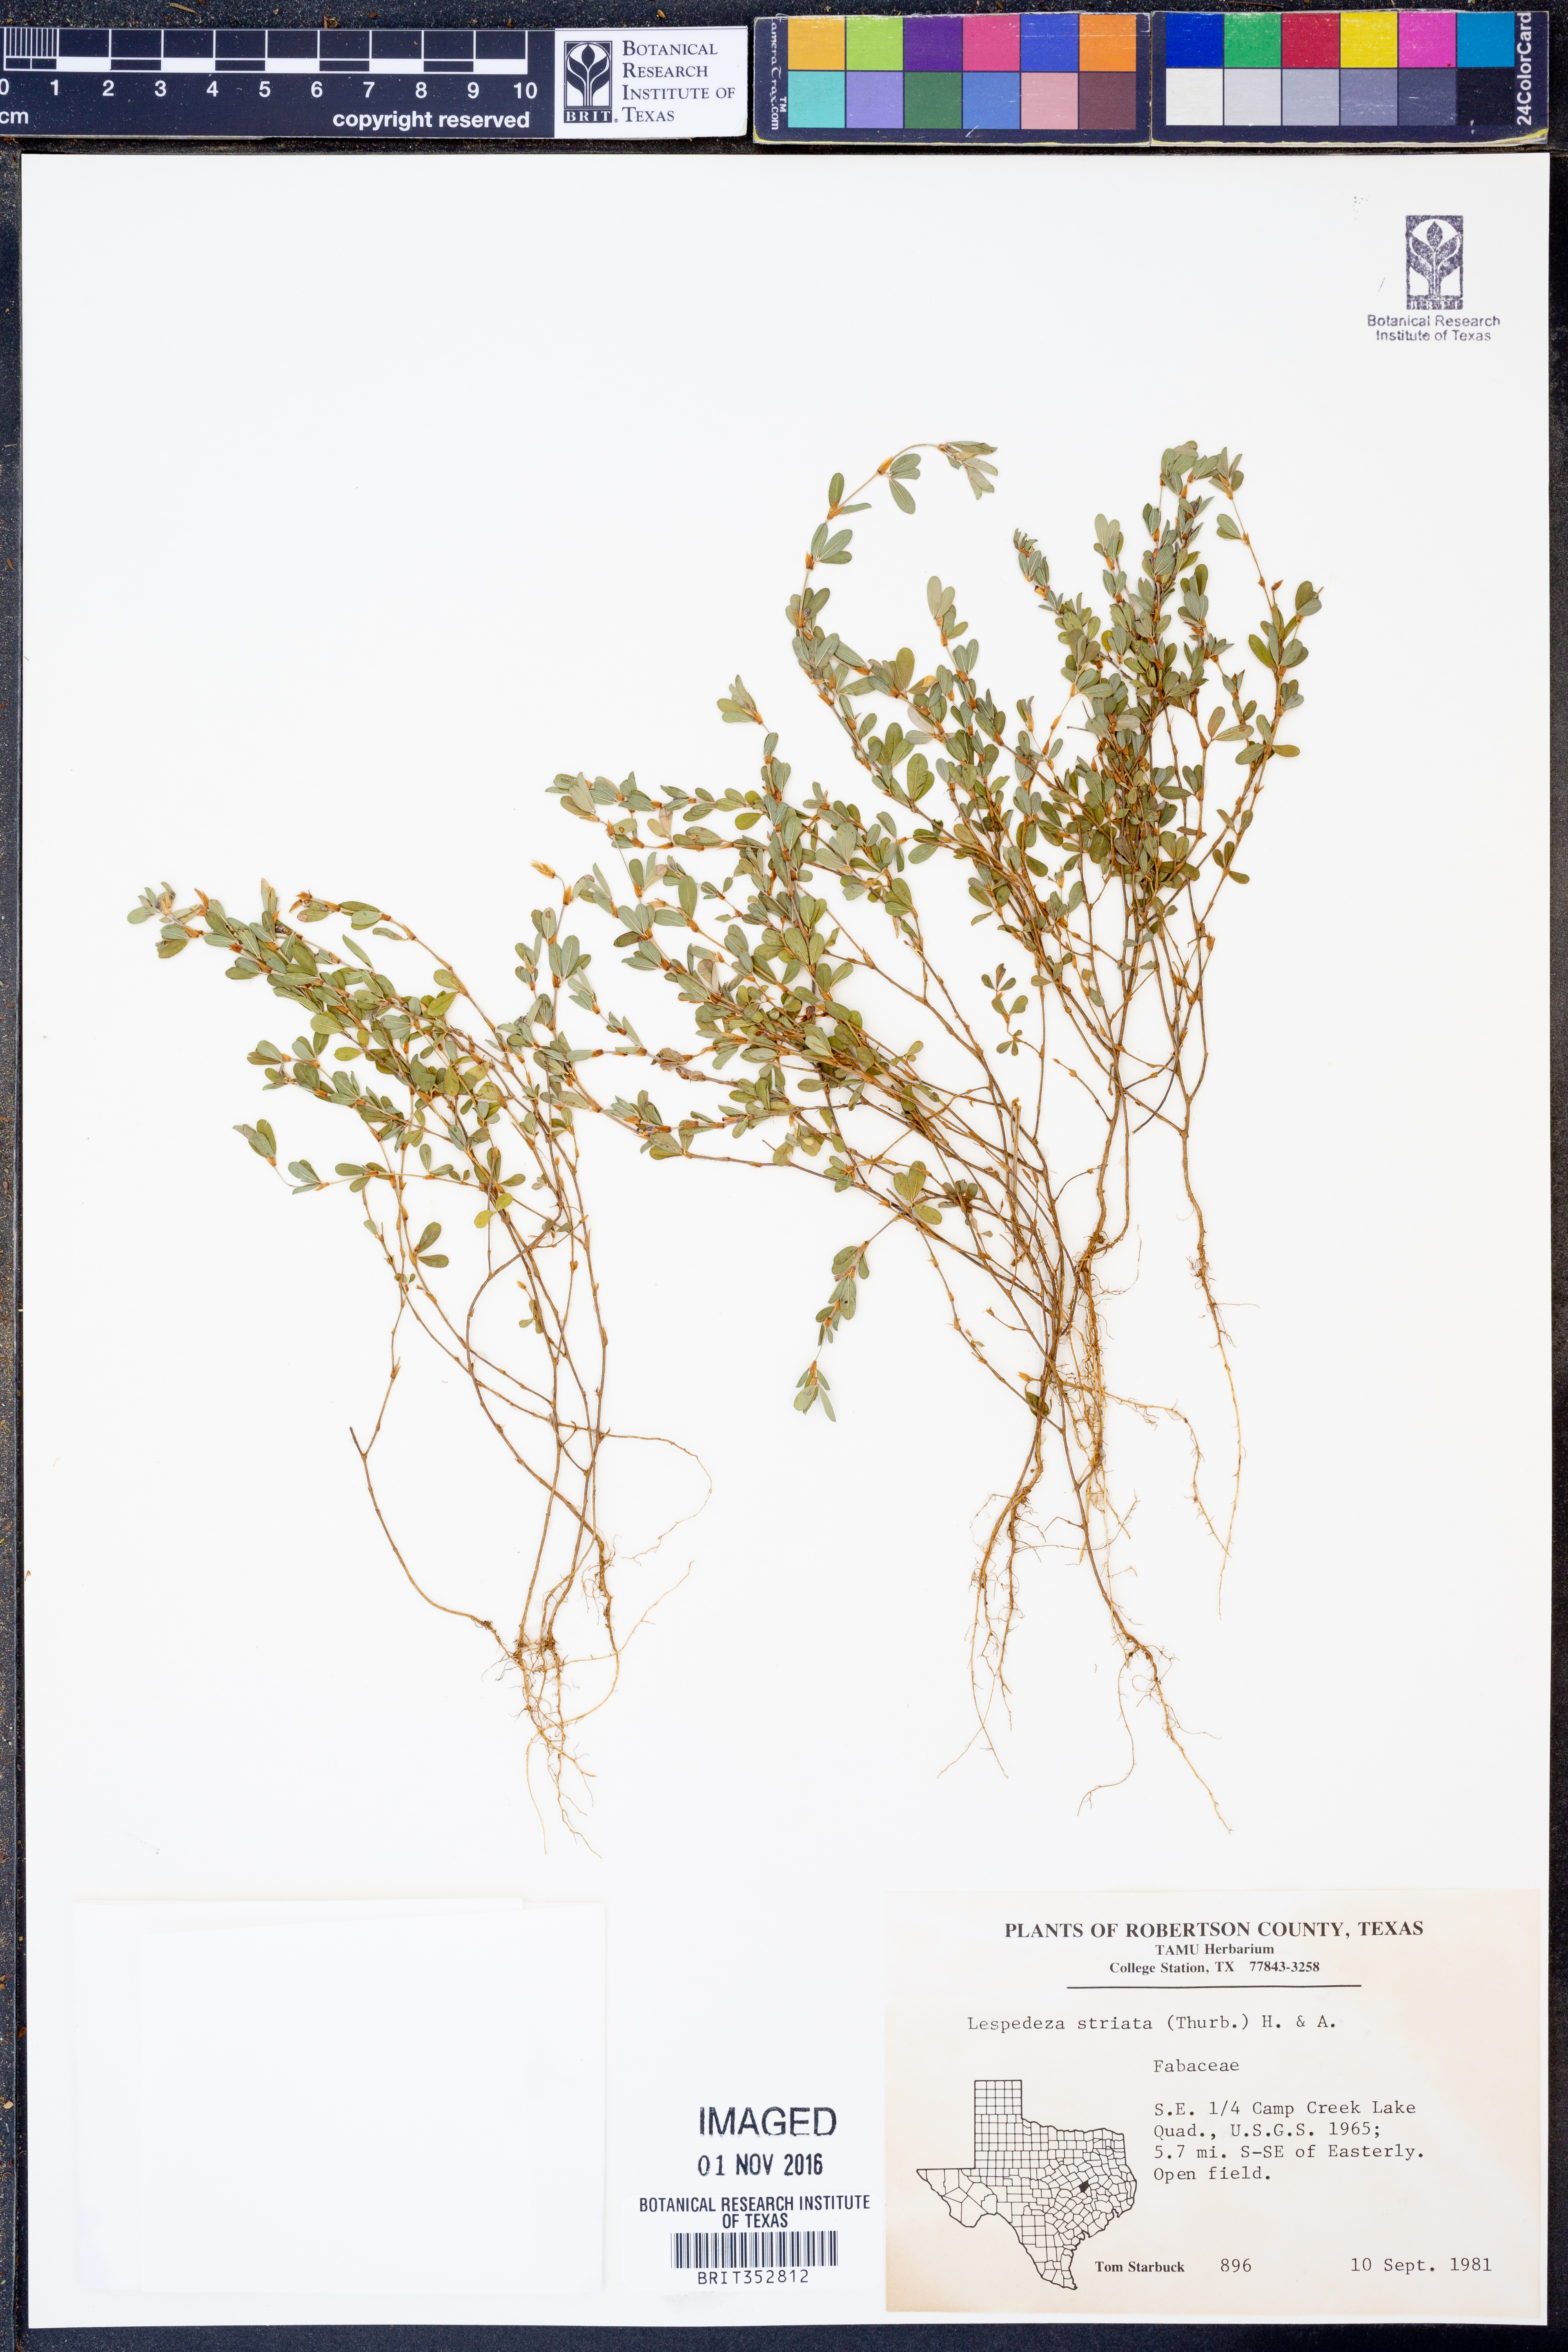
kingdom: Plantae
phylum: Tracheophyta
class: Magnoliopsida
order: Fabales
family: Fabaceae
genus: Kummerowia
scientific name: Kummerowia striata
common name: Japanese clover
